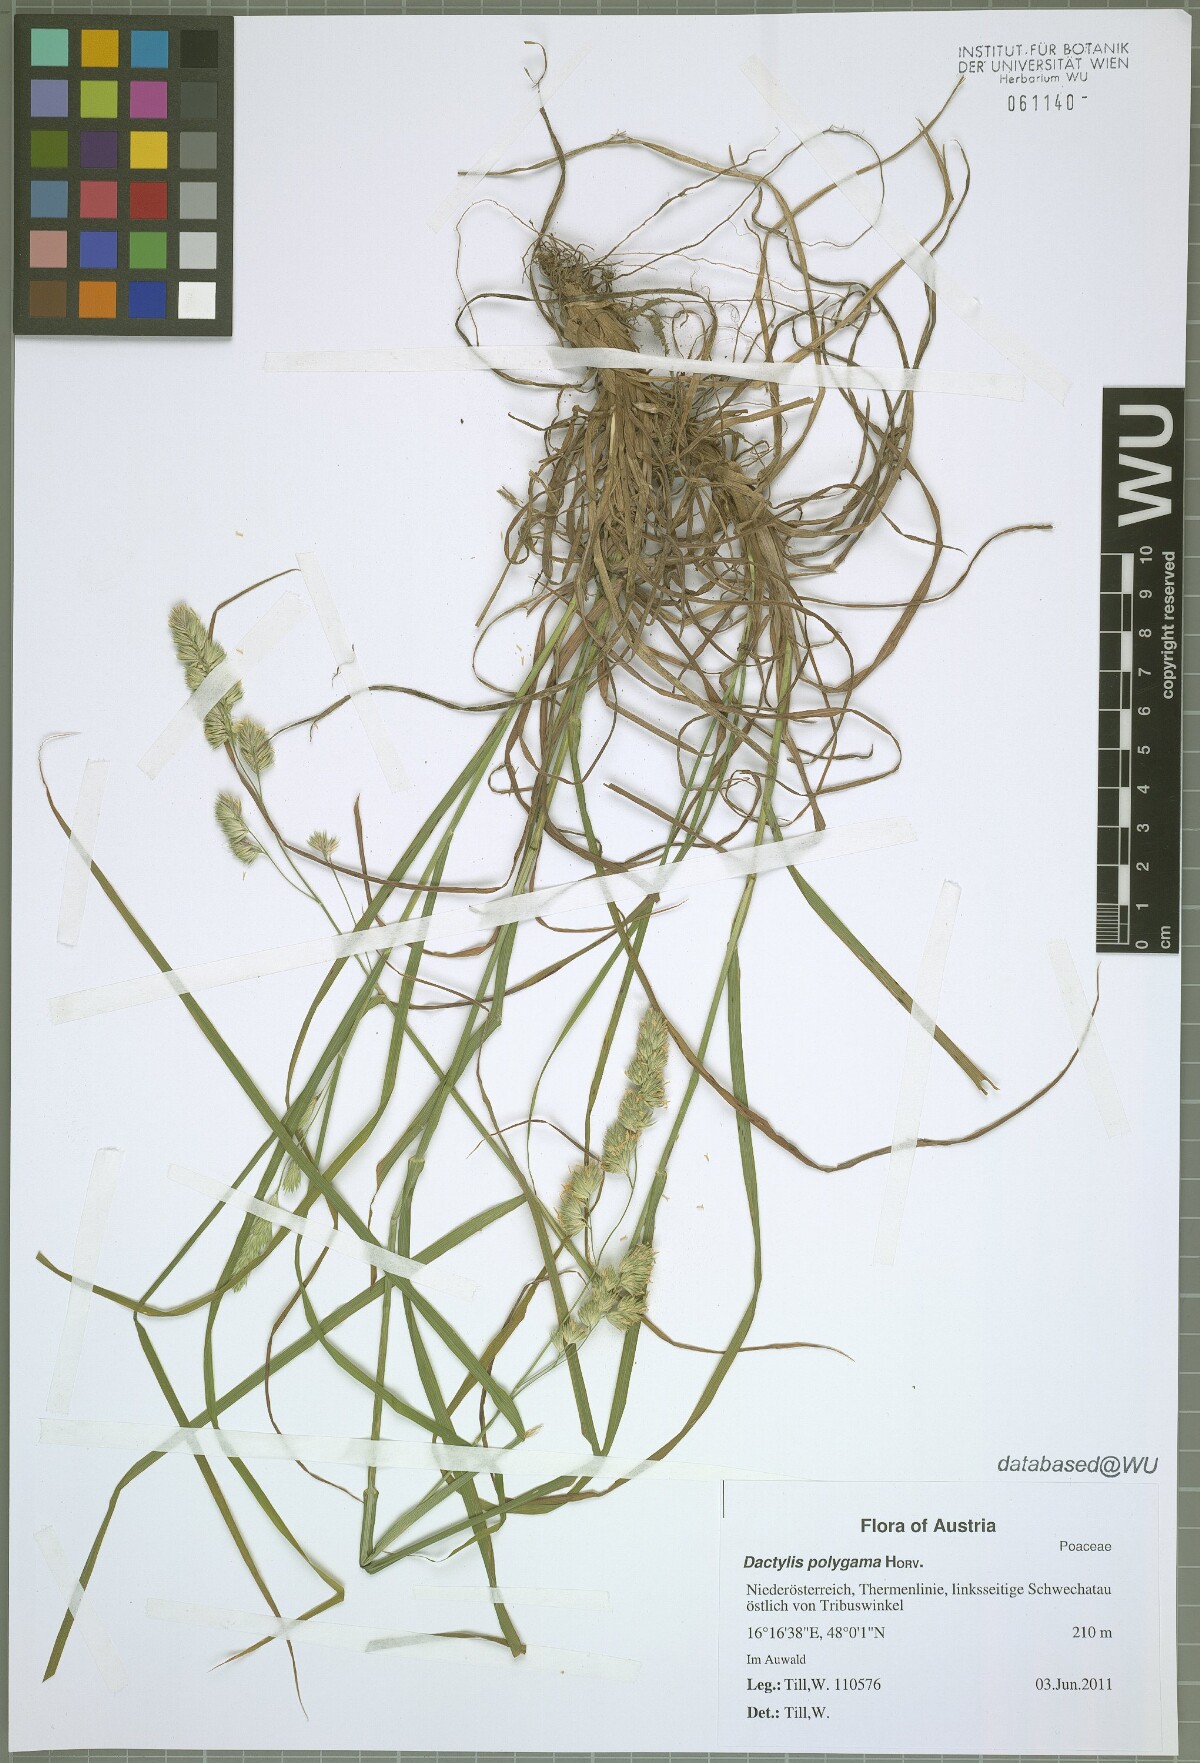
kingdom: Plantae
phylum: Tracheophyta
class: Liliopsida
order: Poales
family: Poaceae
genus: Dactylis
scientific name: Dactylis glomerata
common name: Orchardgrass
